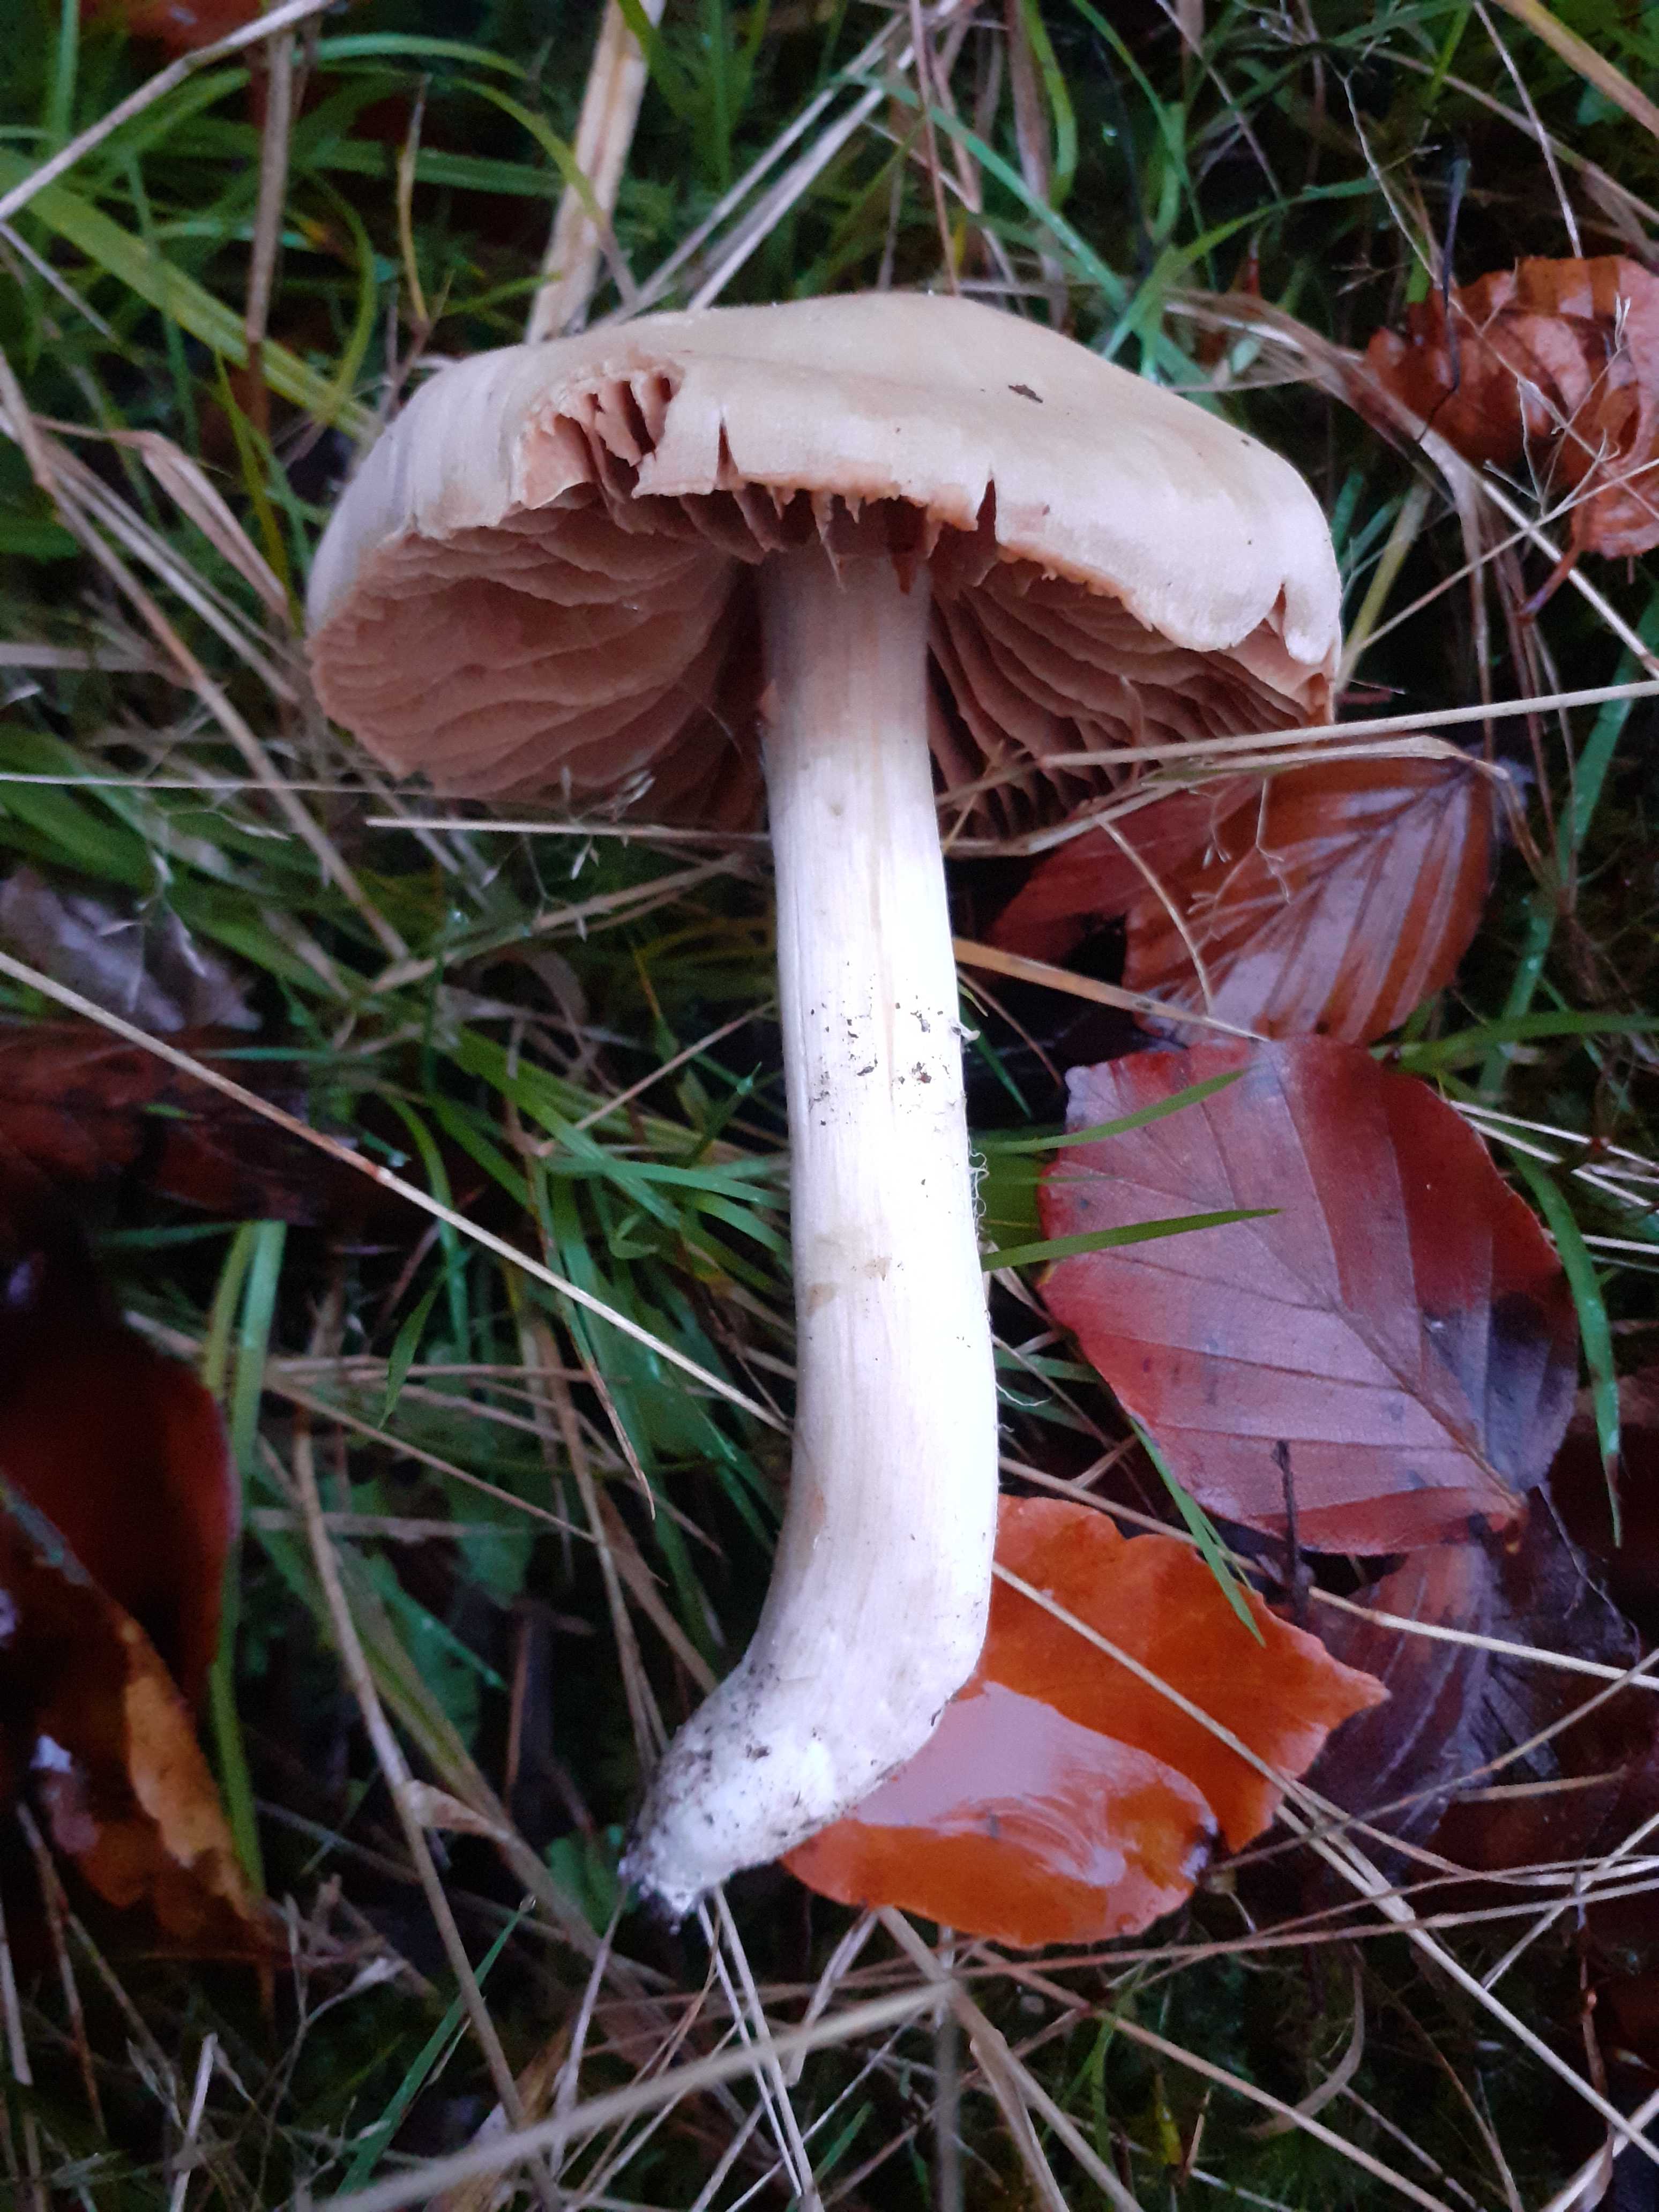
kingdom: Fungi
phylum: Basidiomycota
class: Agaricomycetes
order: Agaricales
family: Cortinariaceae
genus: Cortinarius
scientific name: Cortinarius
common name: jod-slørhat
